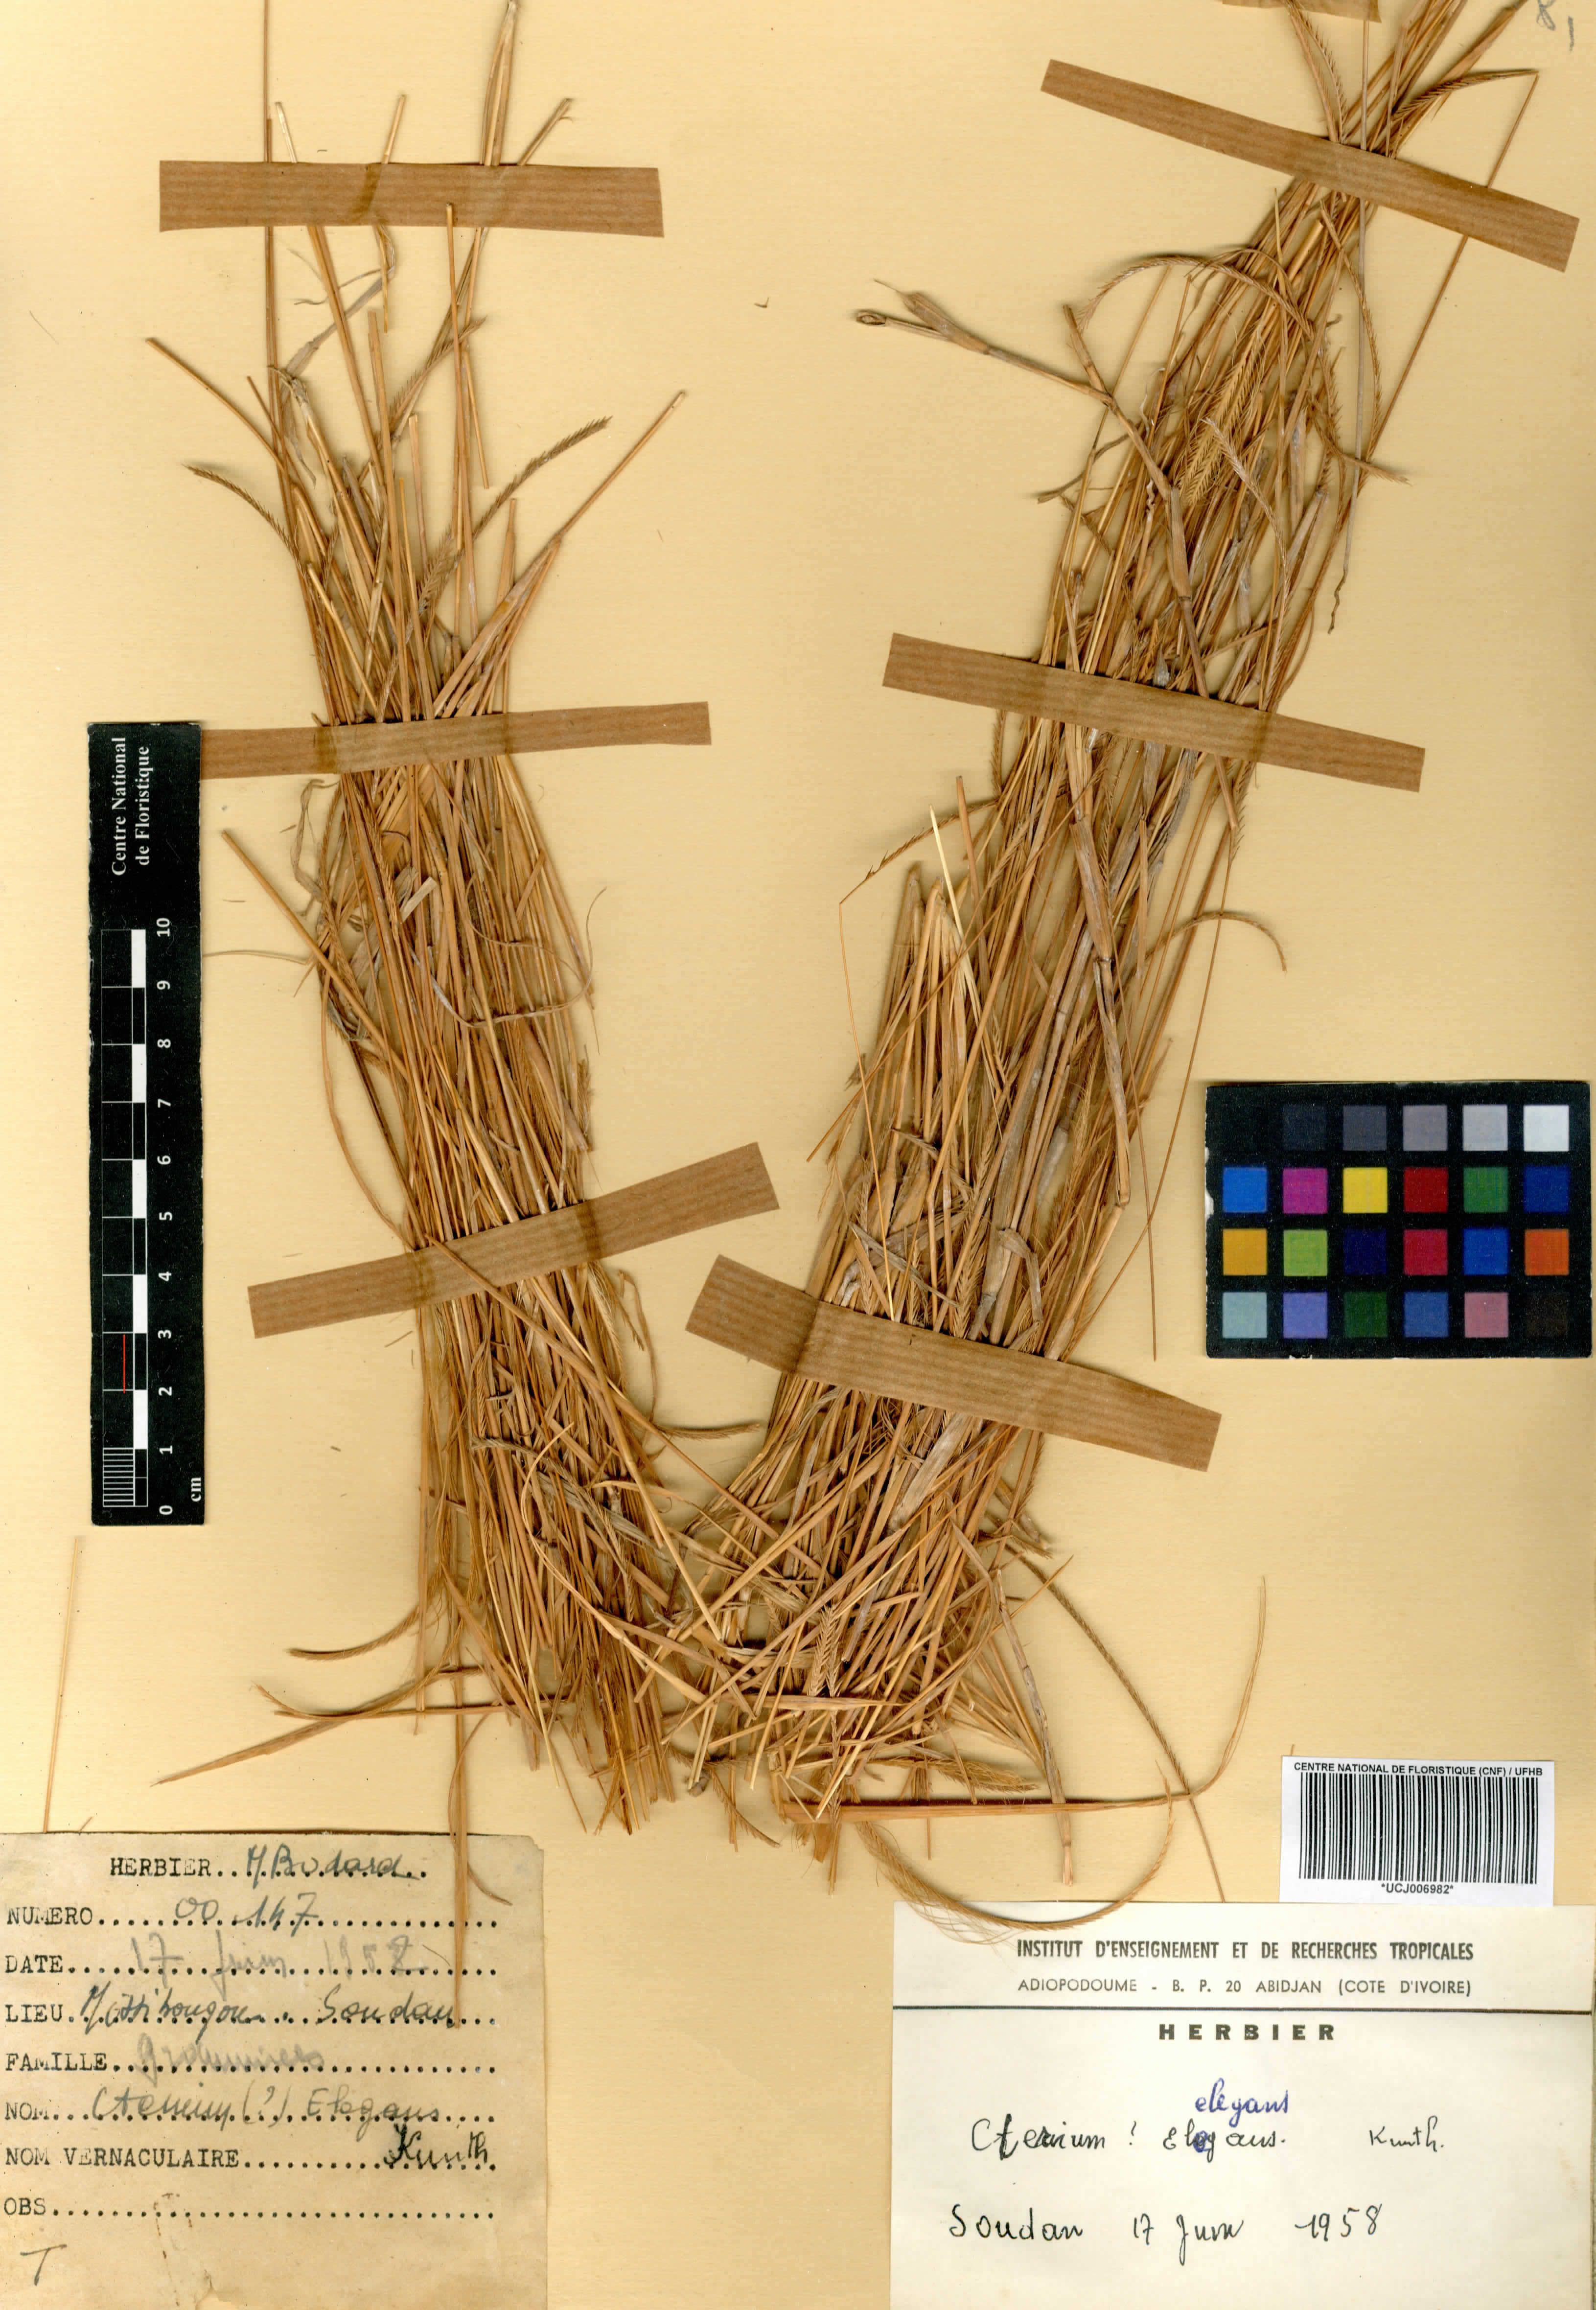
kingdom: Plantae
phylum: Tracheophyta
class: Liliopsida
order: Poales
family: Poaceae
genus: Ctenium
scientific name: Ctenium elegans
